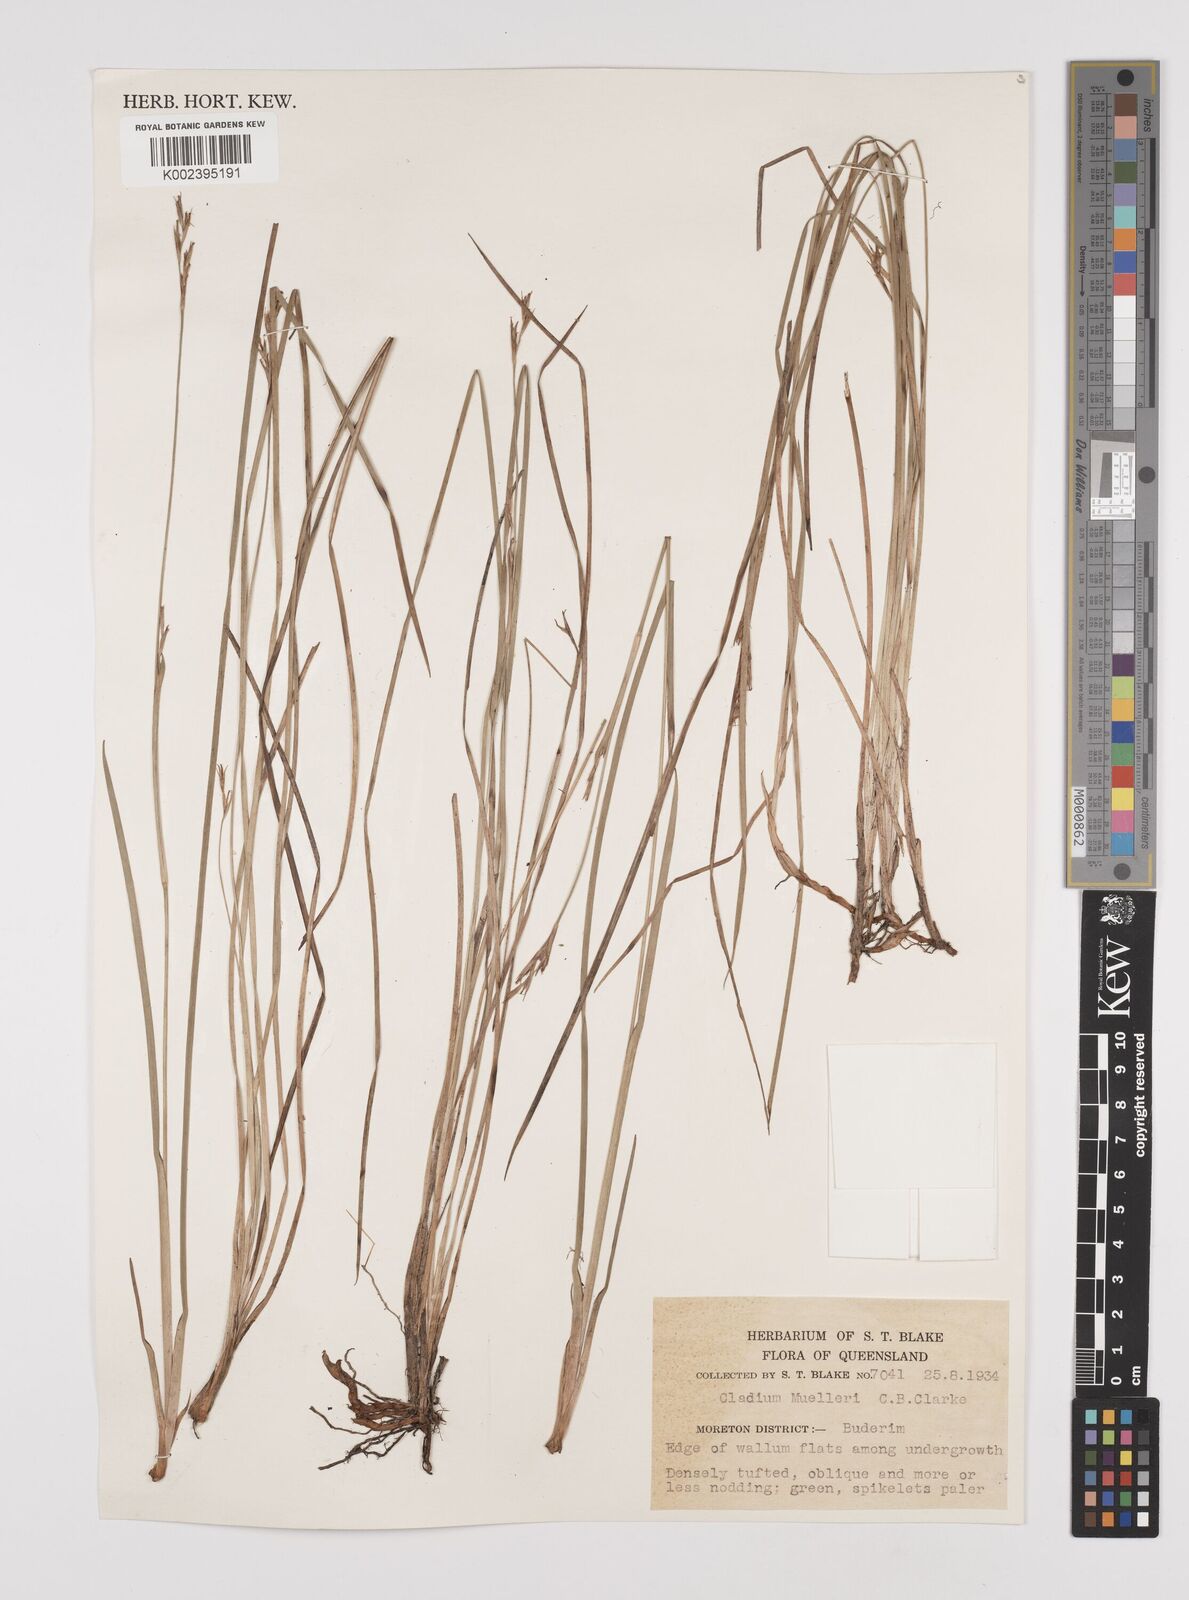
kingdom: Plantae
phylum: Tracheophyta
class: Liliopsida
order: Poales
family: Cyperaceae
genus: Machaerina
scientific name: Machaerina muelleri
